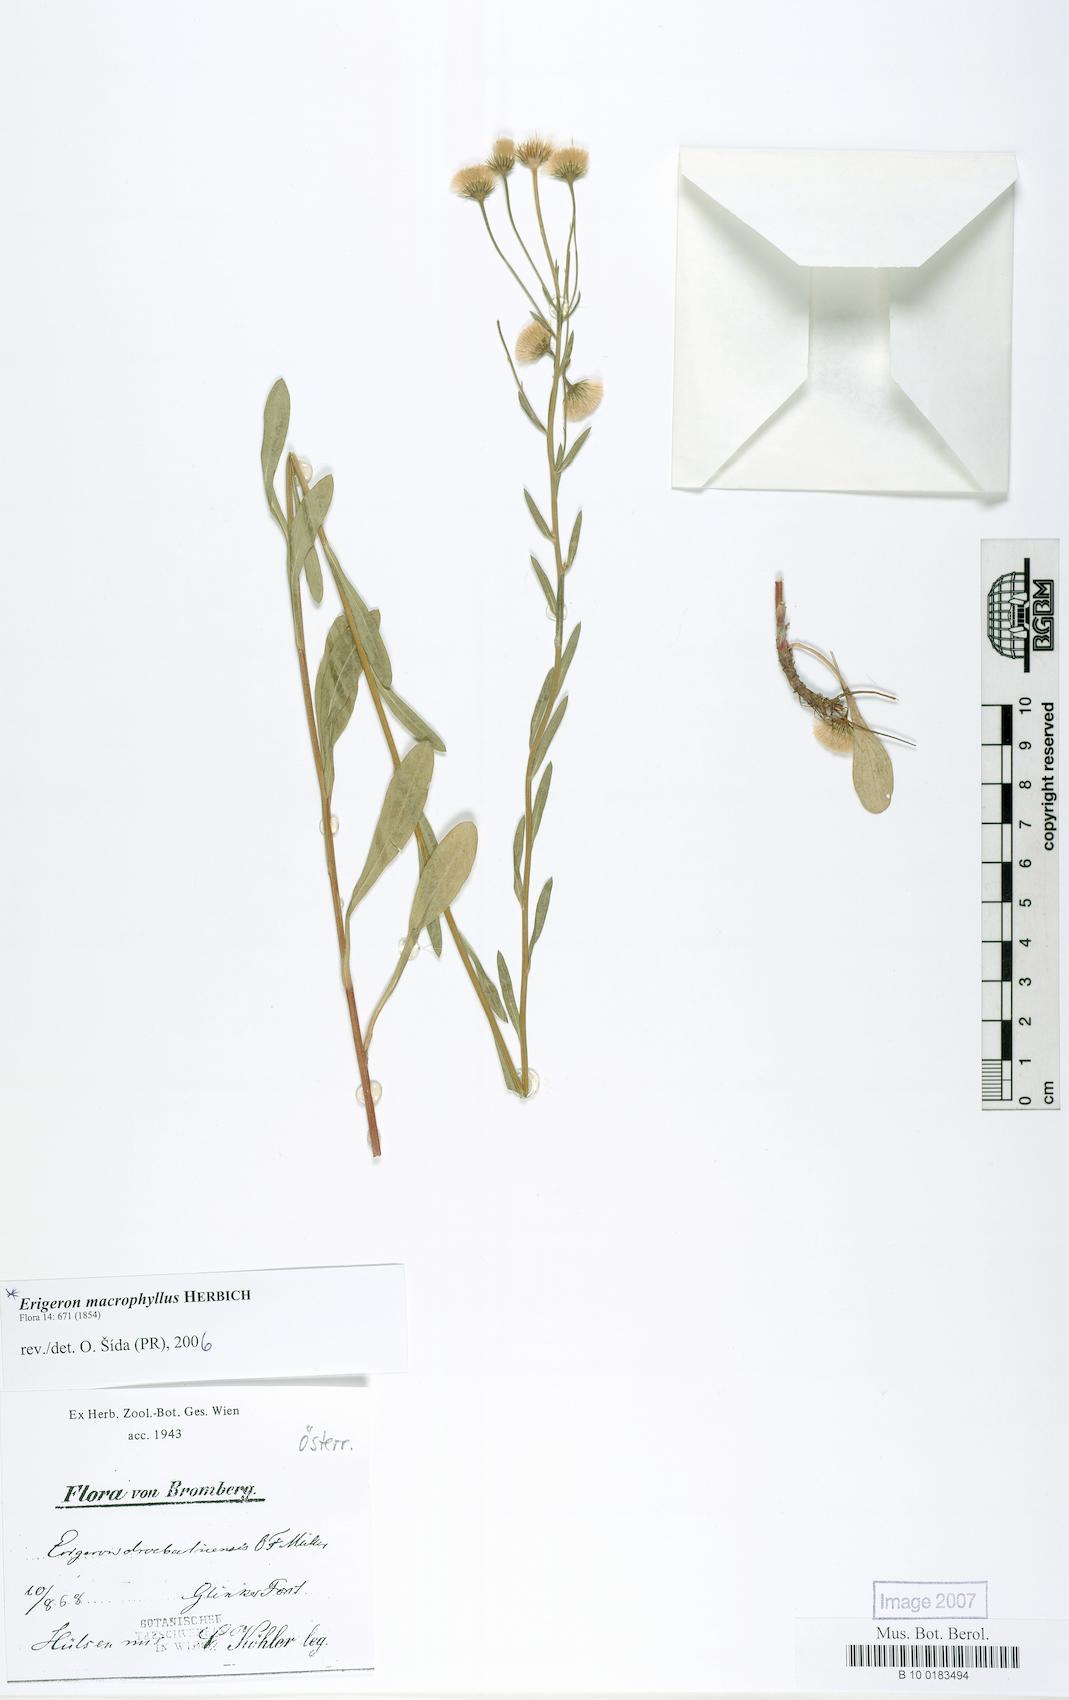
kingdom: Plantae
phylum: Tracheophyta
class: Magnoliopsida
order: Asterales
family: Asteraceae
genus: Erigeron
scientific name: Erigeron macrophyllus
